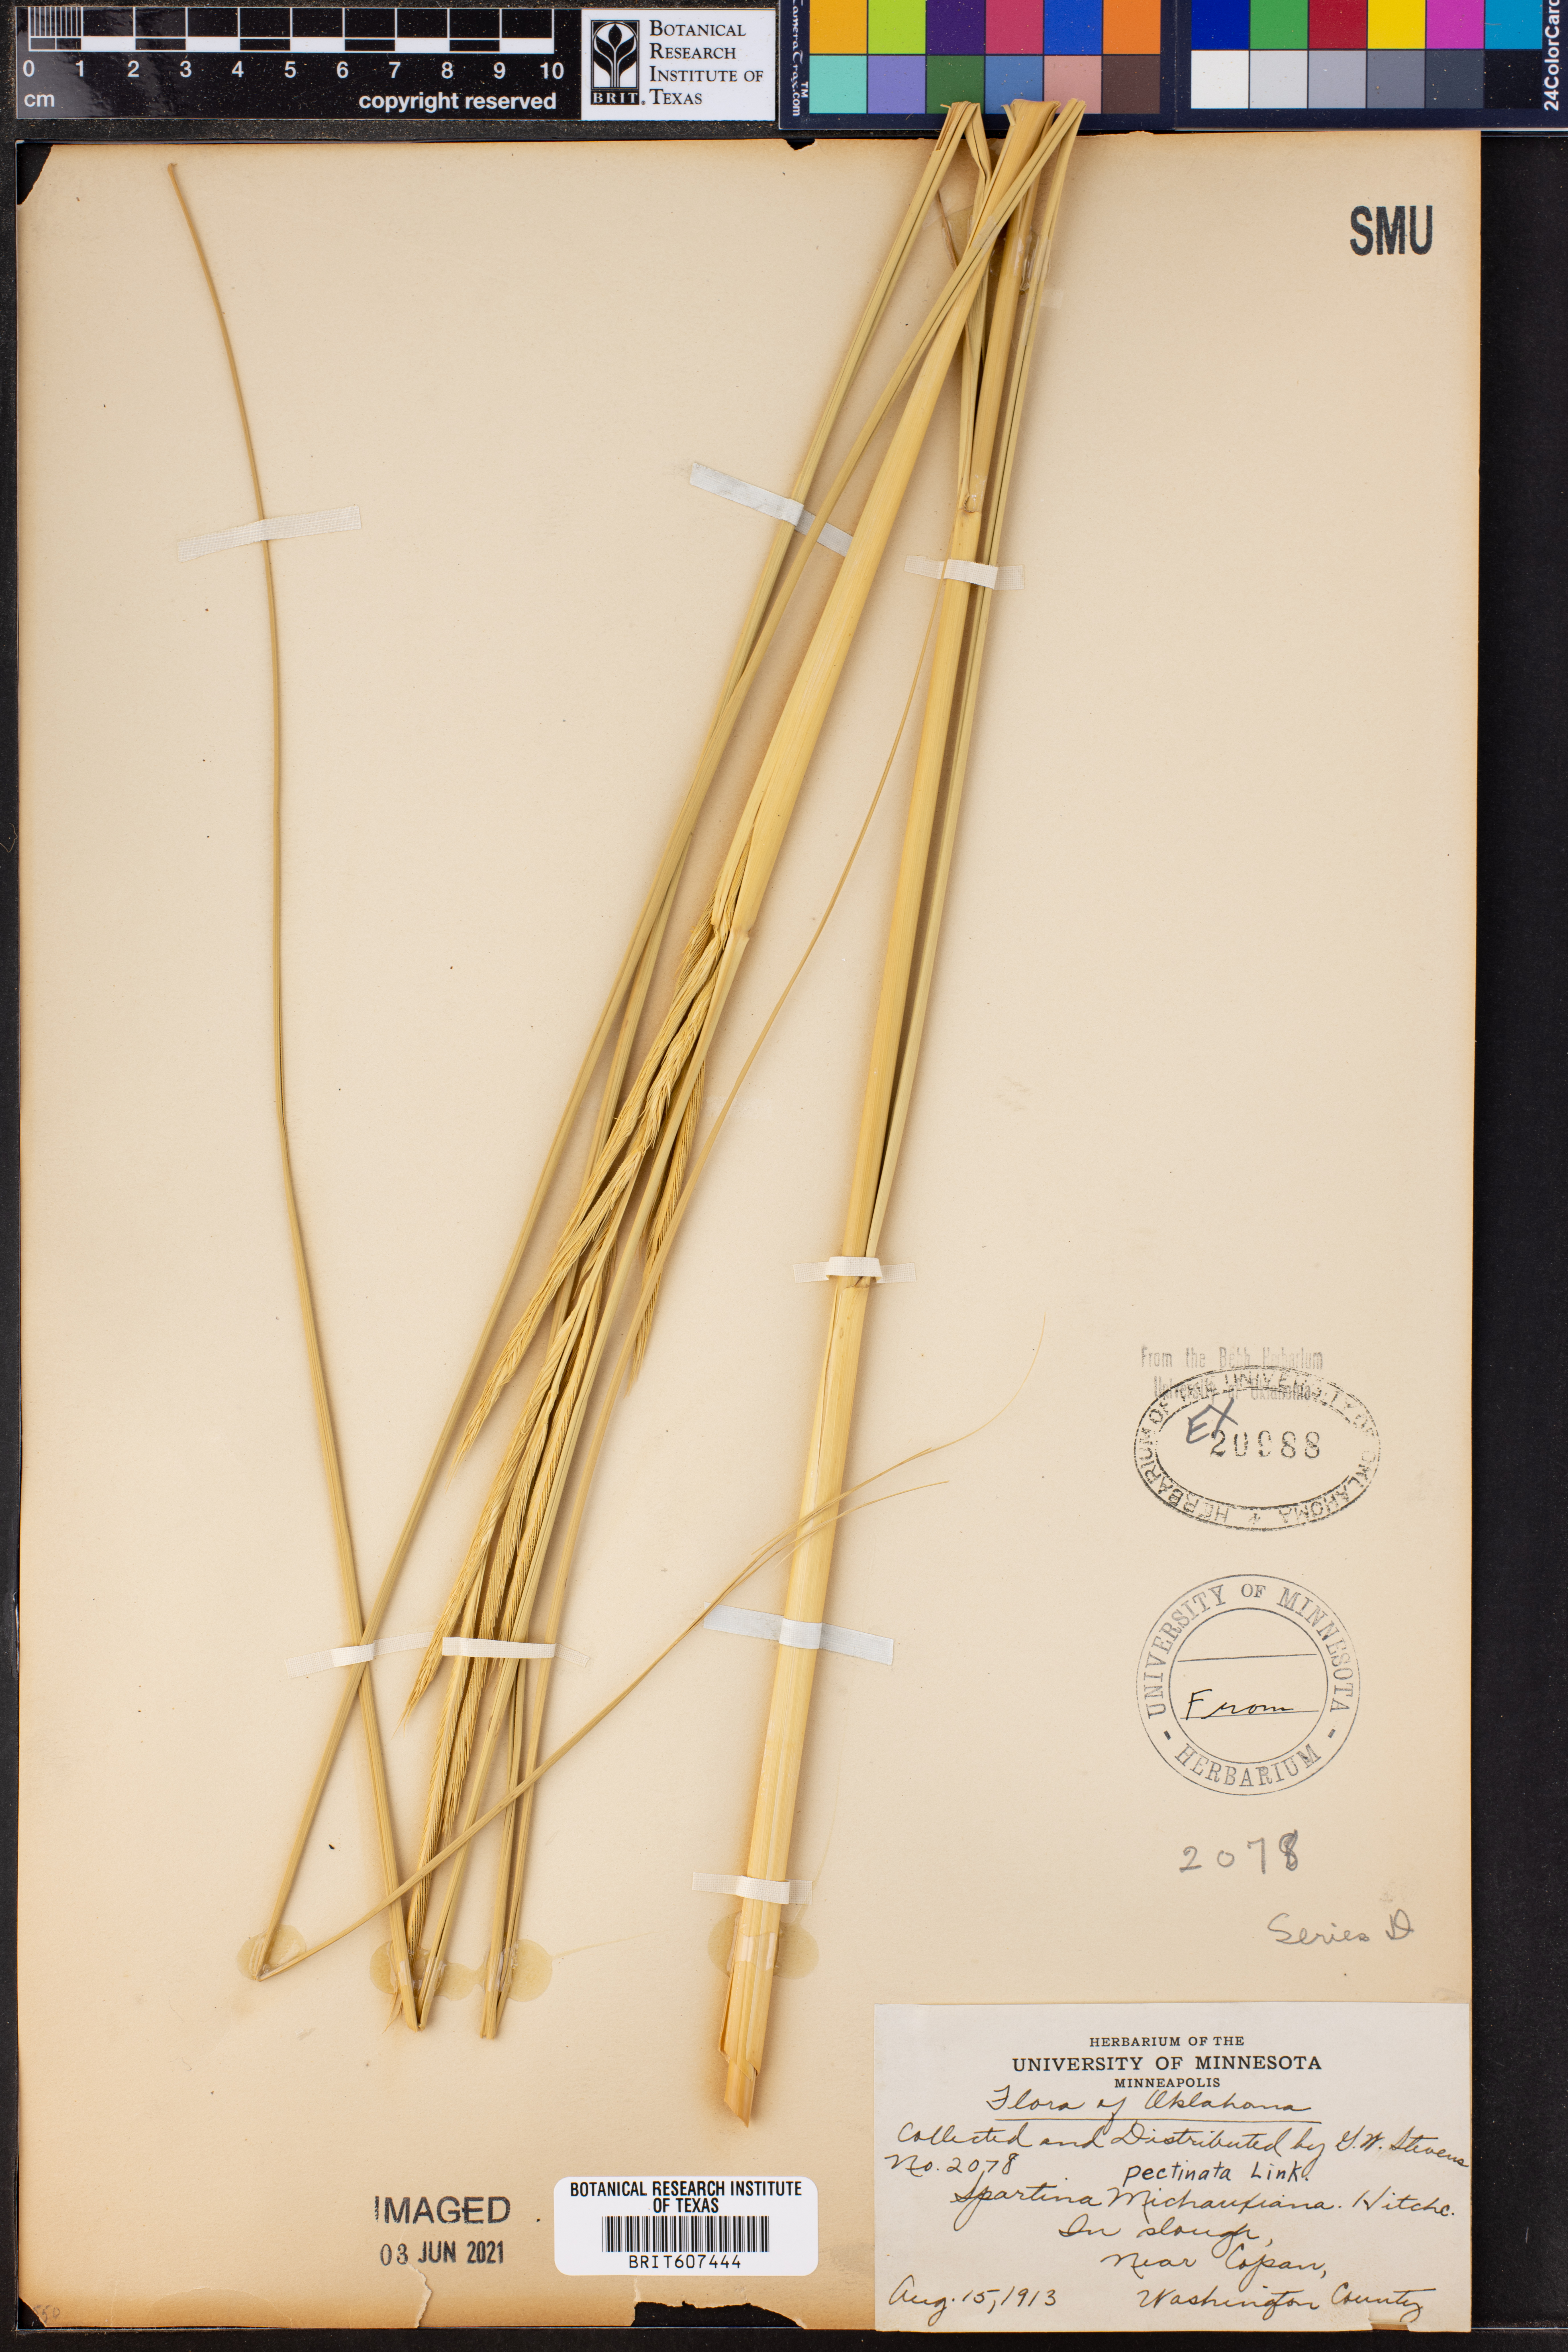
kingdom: Plantae
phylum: Tracheophyta
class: Liliopsida
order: Poales
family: Poaceae
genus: Sporobolus
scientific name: Sporobolus michauxianus
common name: Freshwater cordgrass
